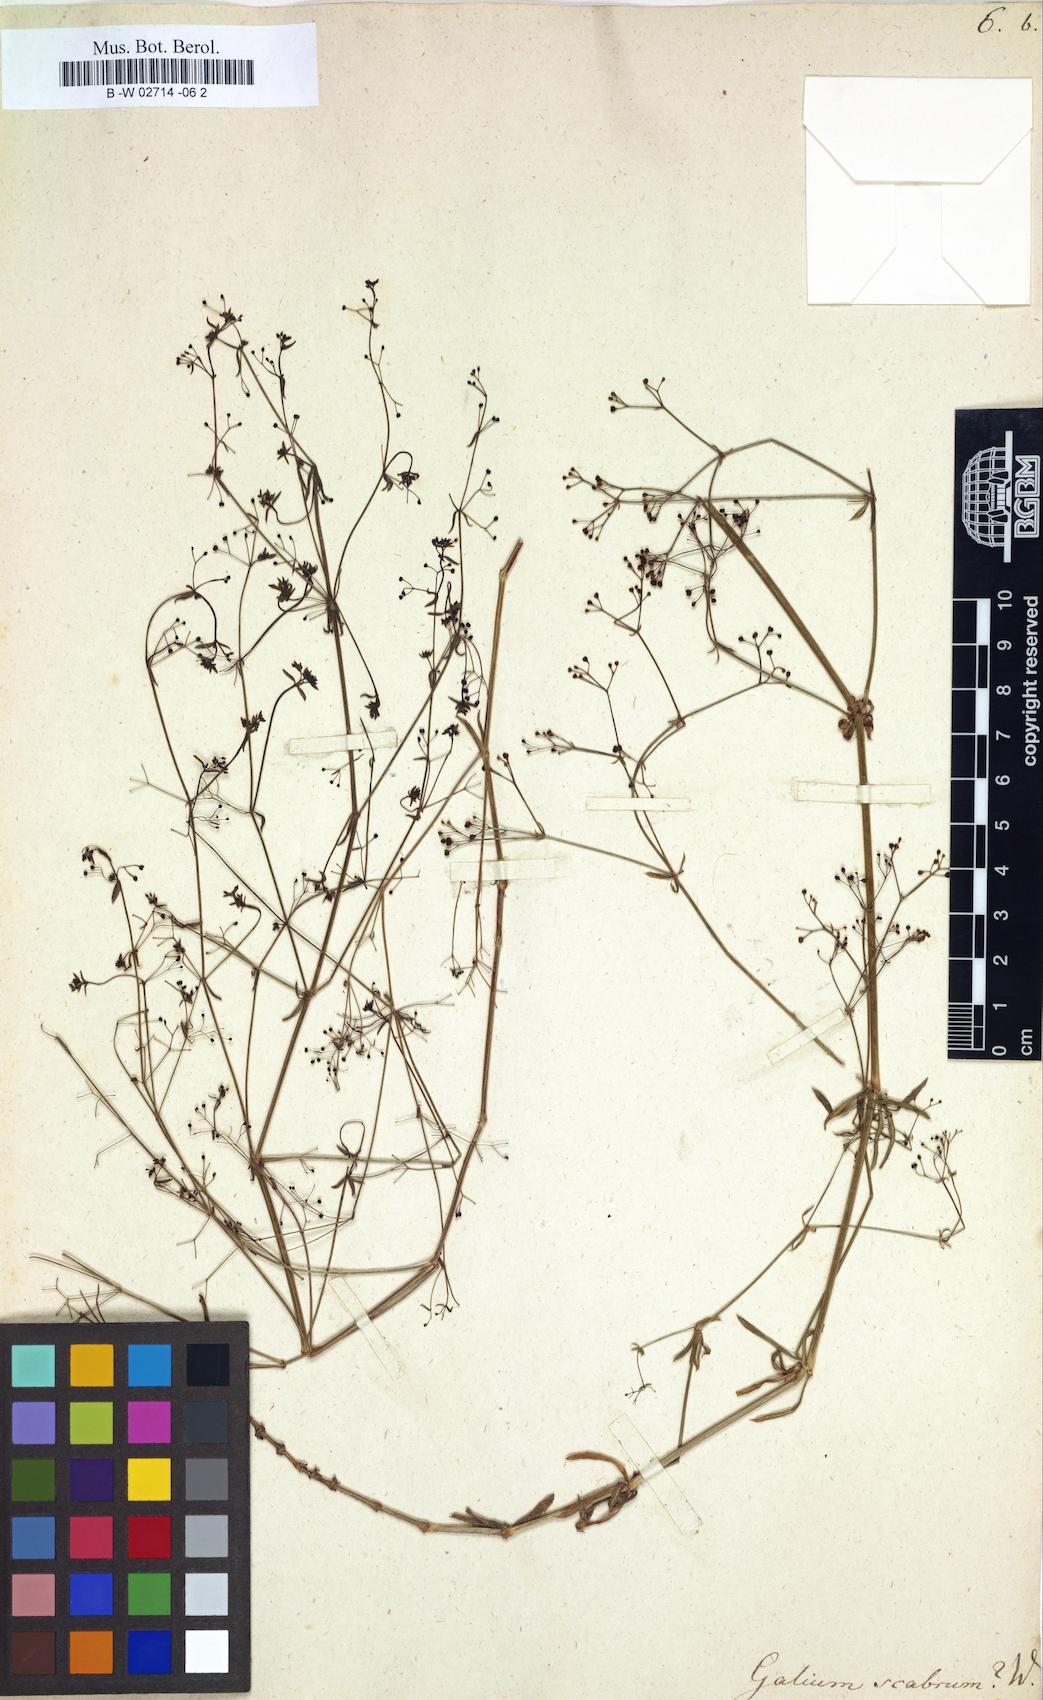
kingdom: Plantae
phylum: Tracheophyta
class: Magnoliopsida
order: Gentianales
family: Rubiaceae
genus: Galium
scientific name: Galium scabrum
